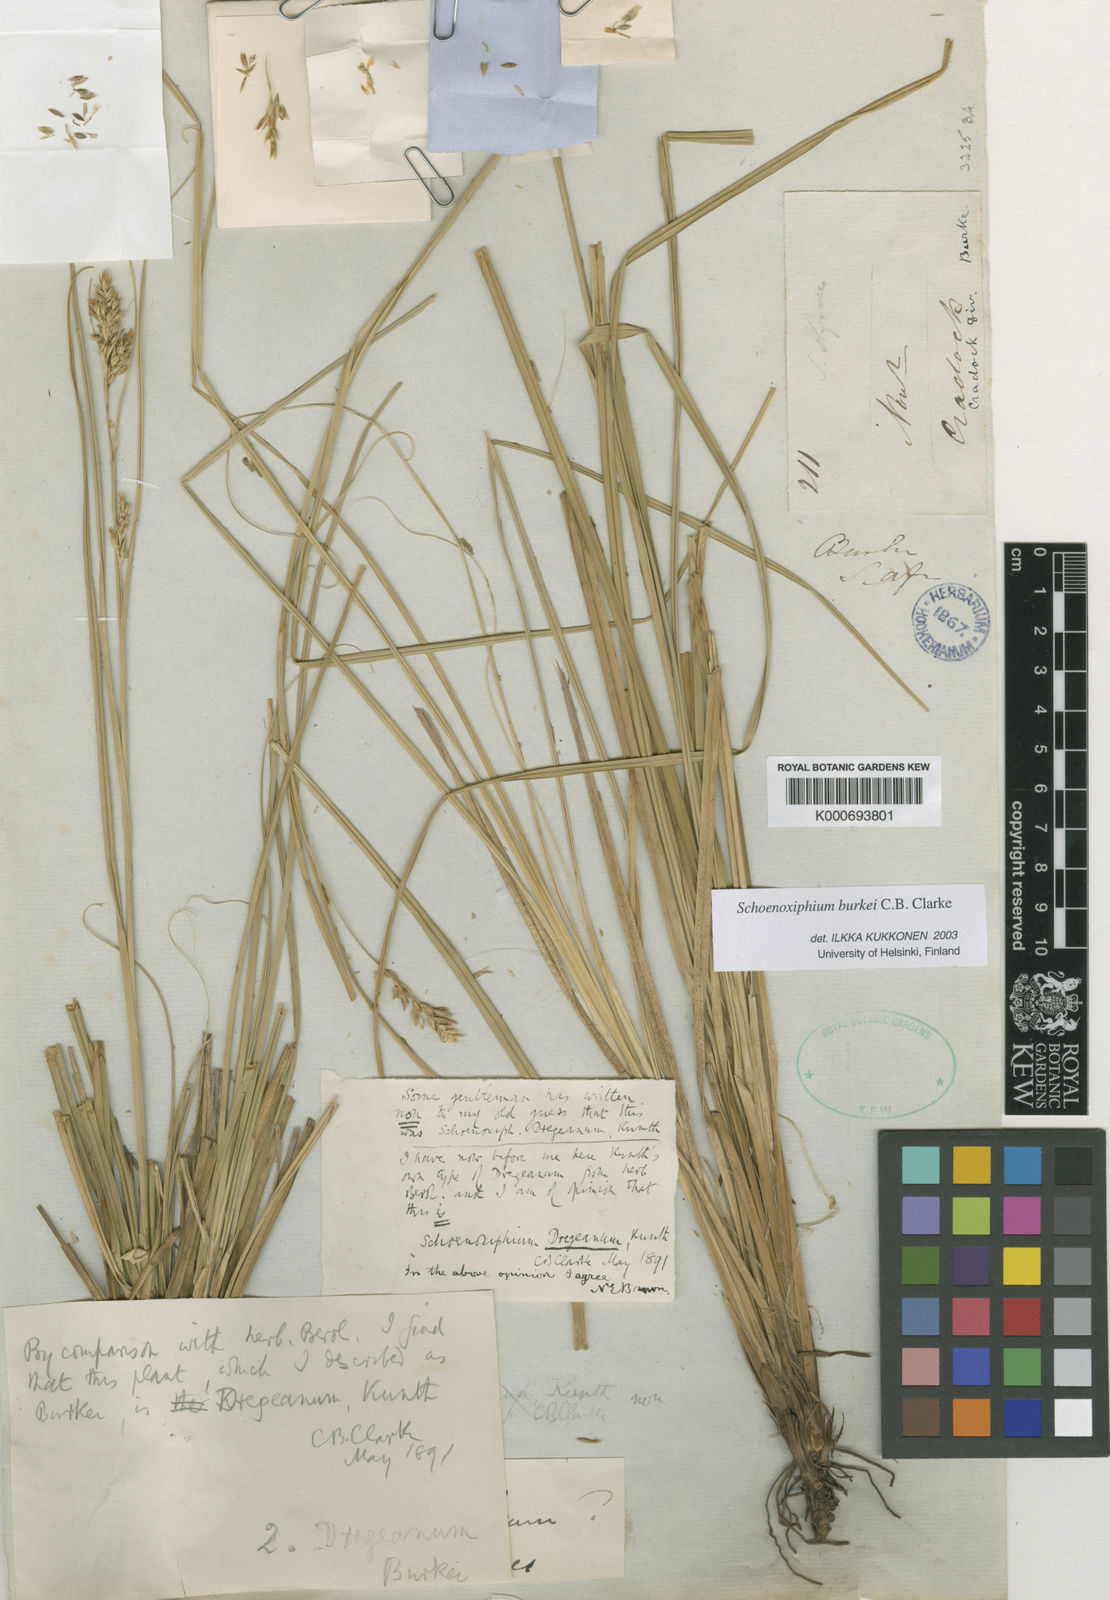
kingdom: Plantae
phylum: Tracheophyta
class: Liliopsida
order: Poales
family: Cyperaceae
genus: Carex
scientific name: Carex burkei
